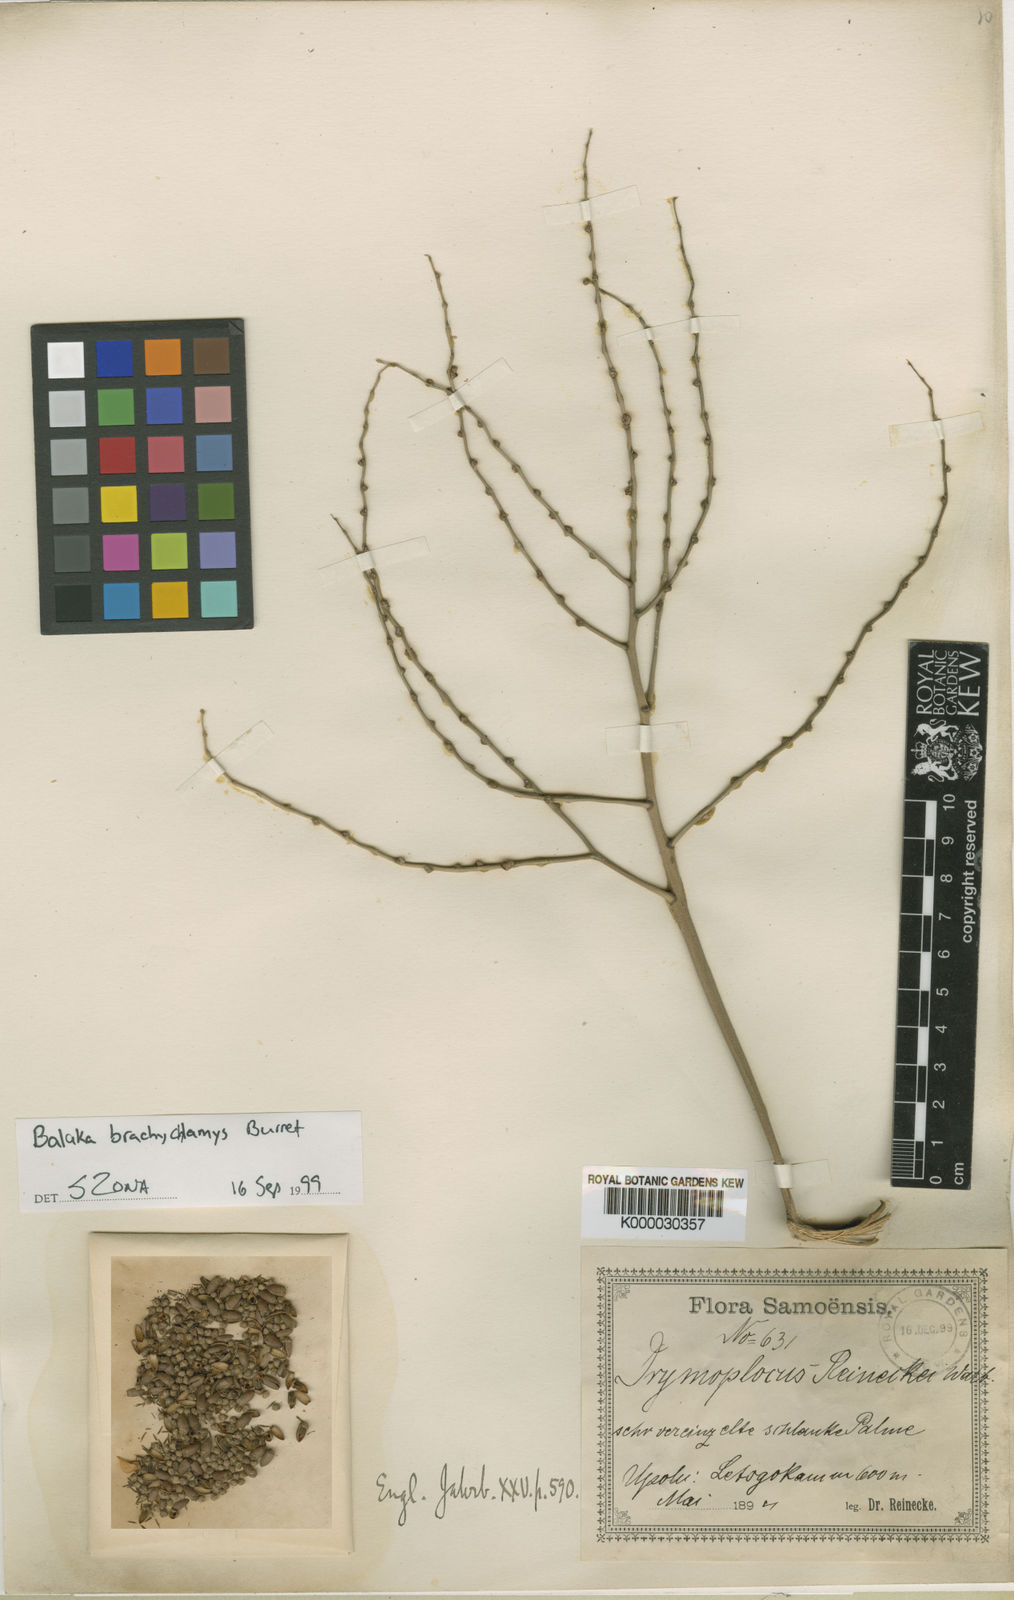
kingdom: Plantae
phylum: Tracheophyta
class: Liliopsida
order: Arecales
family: Arecaceae
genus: Balaka
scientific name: Balaka tahitensis
